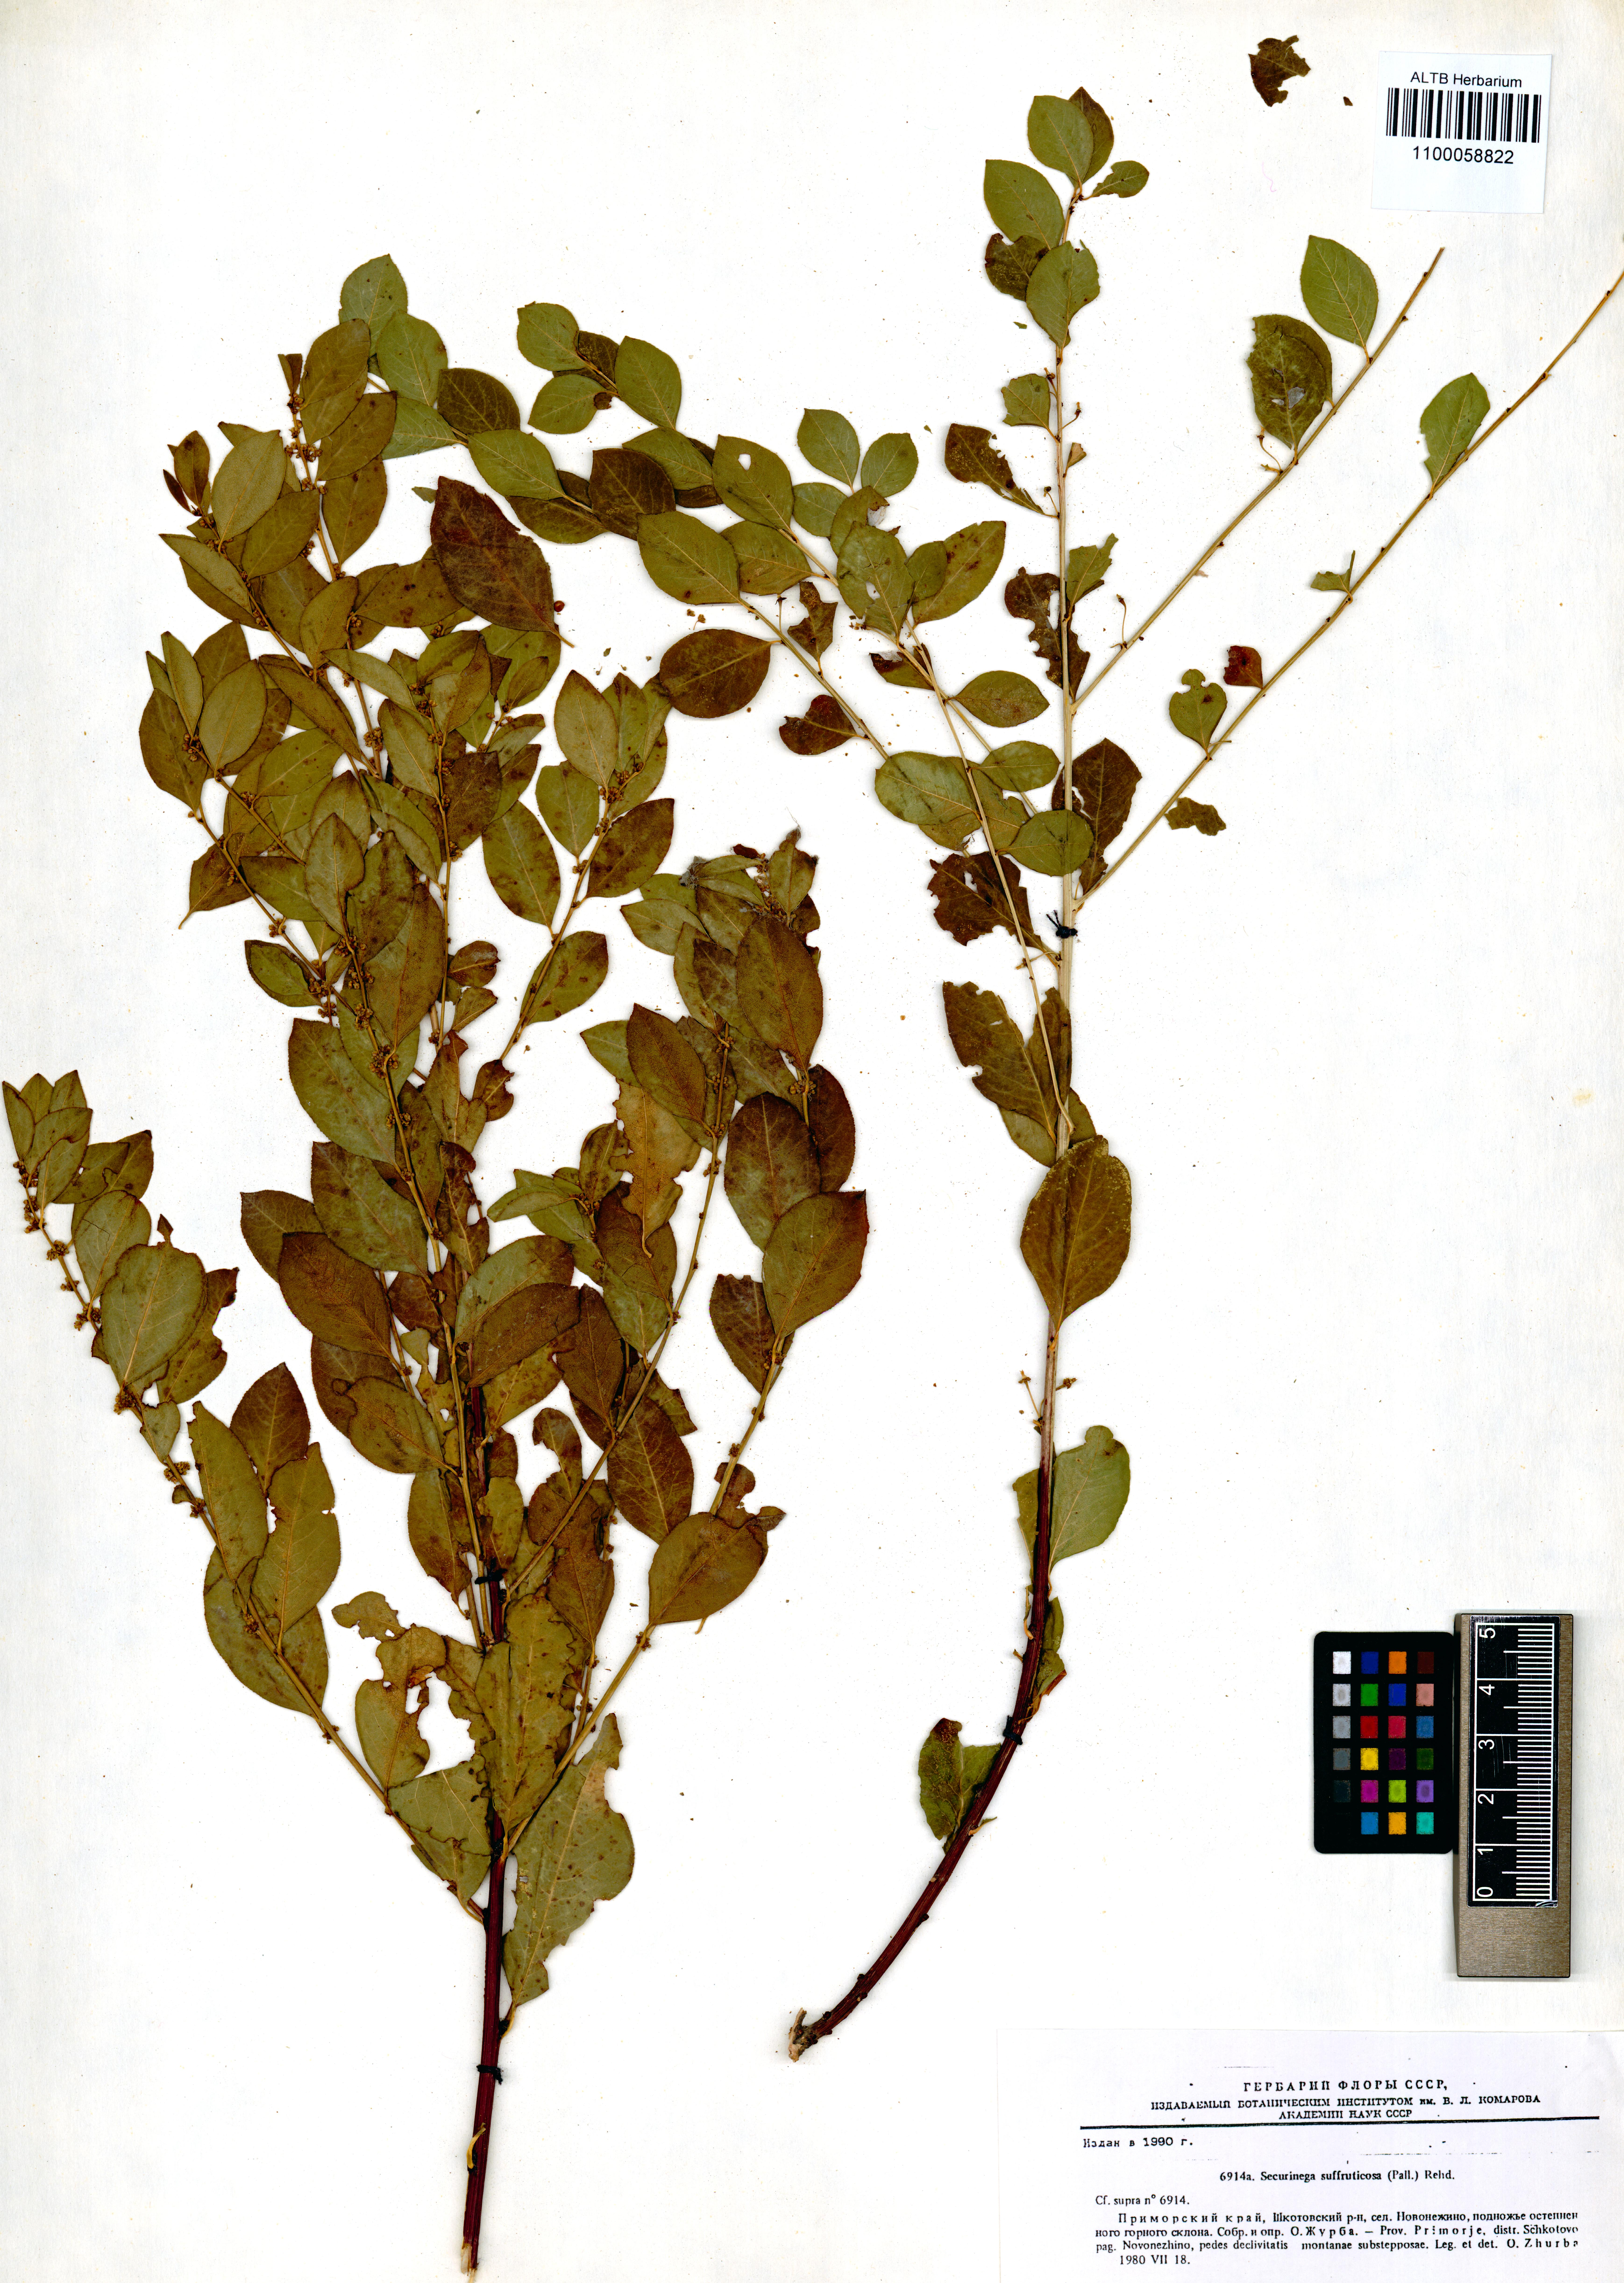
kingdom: Plantae
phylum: Tracheophyta
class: Magnoliopsida
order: Malpighiales
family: Phyllanthaceae
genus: Flueggea
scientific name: Flueggea suffruticosa
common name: Arching bushweed
